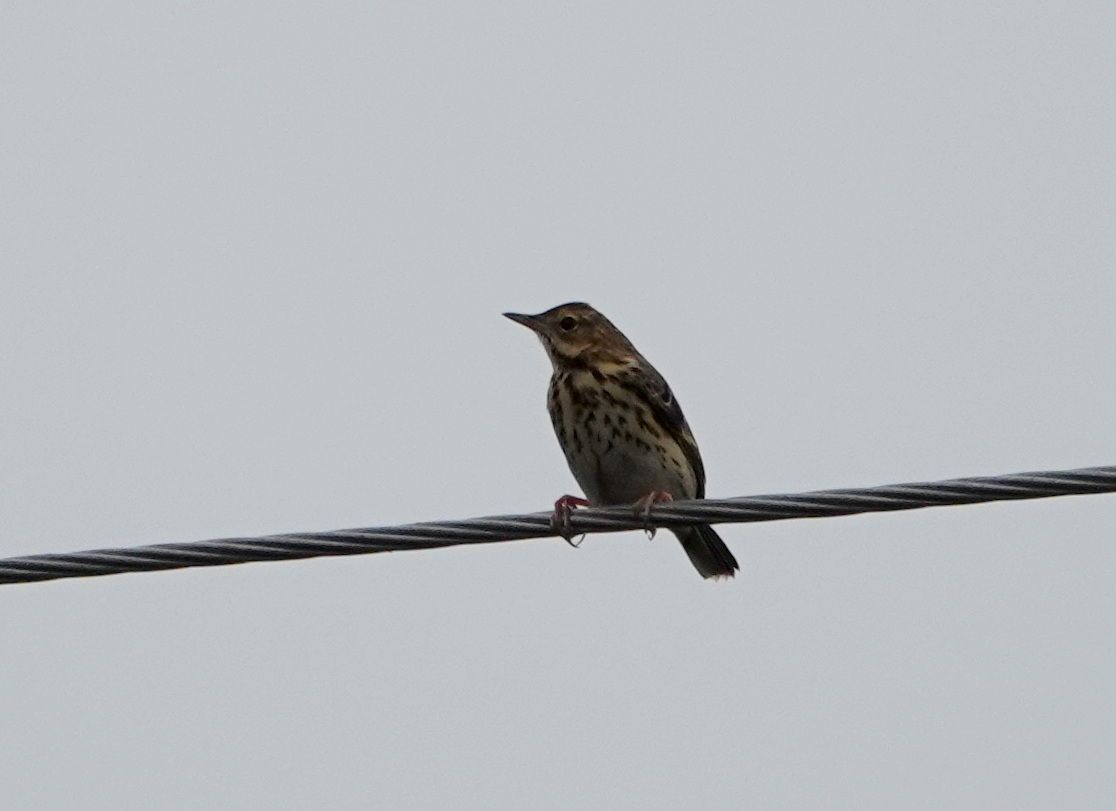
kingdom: Animalia
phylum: Chordata
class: Aves
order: Passeriformes
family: Motacillidae
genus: Anthus
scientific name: Anthus pratensis
